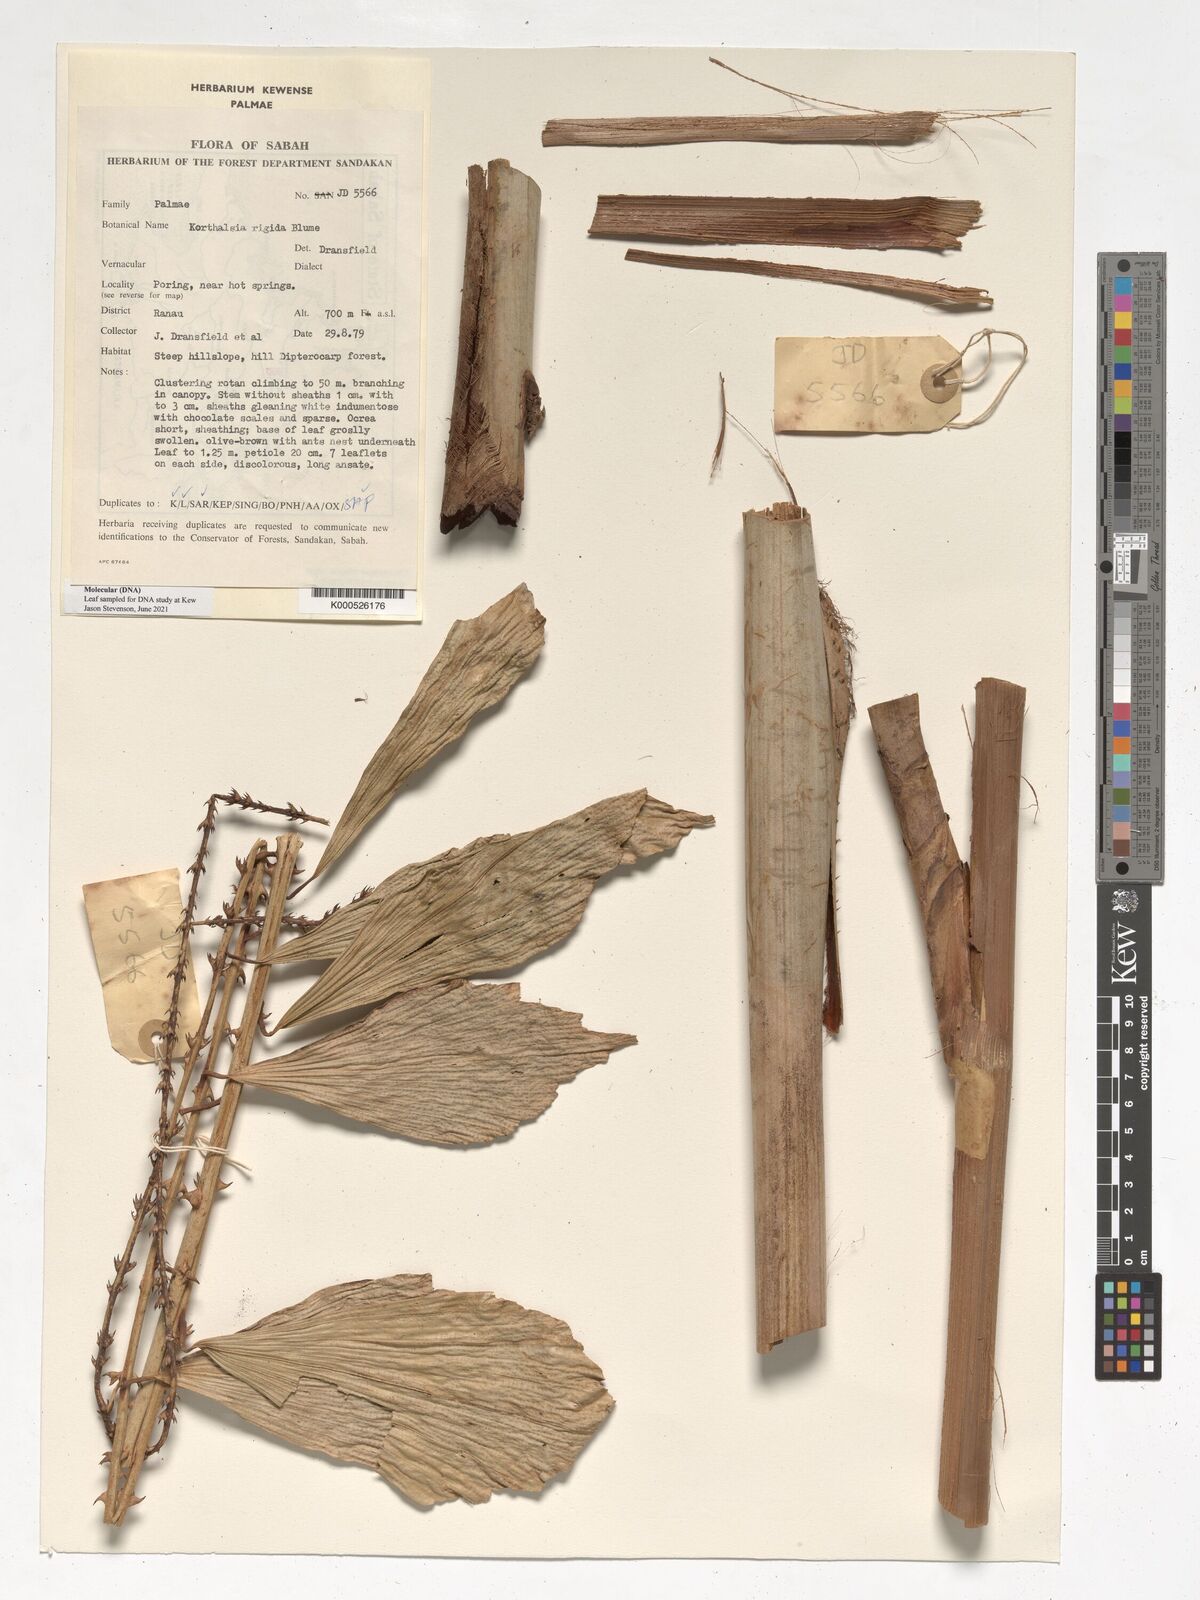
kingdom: Plantae
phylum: Tracheophyta
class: Liliopsida
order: Arecales
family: Arecaceae
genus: Korthalsia
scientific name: Korthalsia rigida
